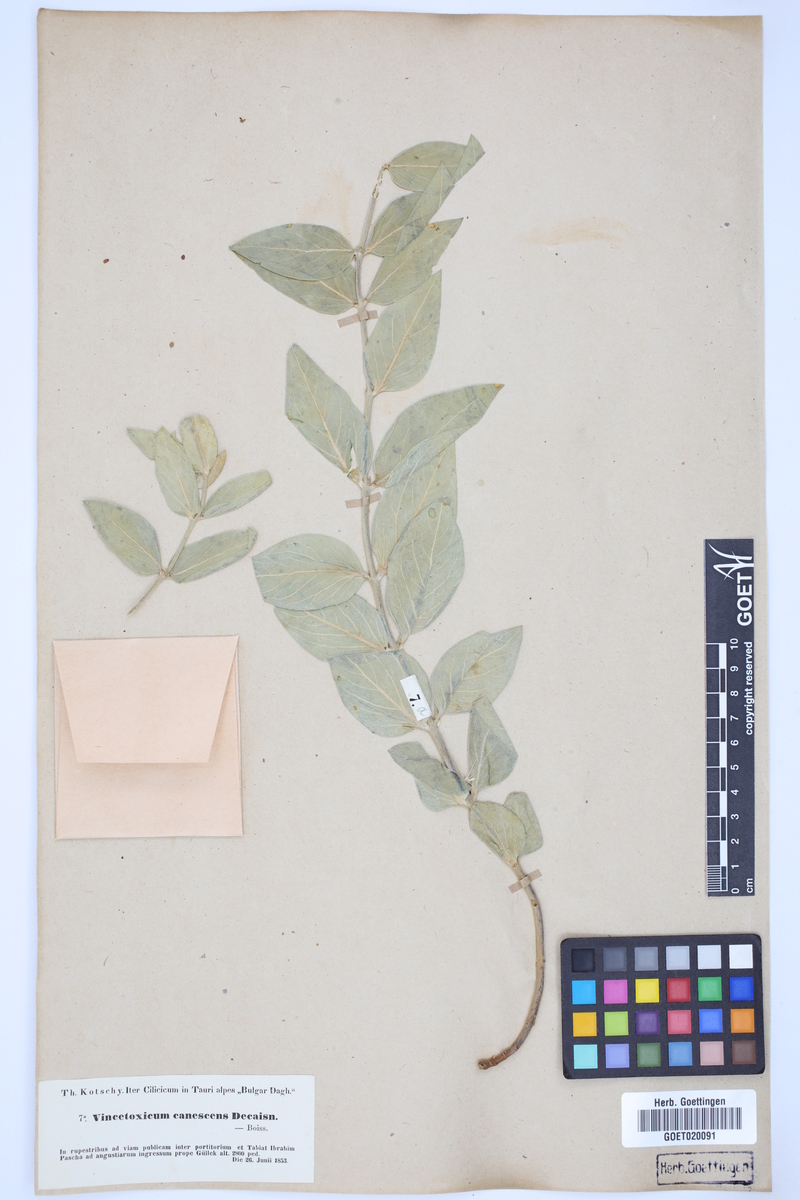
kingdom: Plantae
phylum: Tracheophyta
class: Magnoliopsida
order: Gentianales
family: Apocynaceae
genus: Vincetoxicum
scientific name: Vincetoxicum canescens
